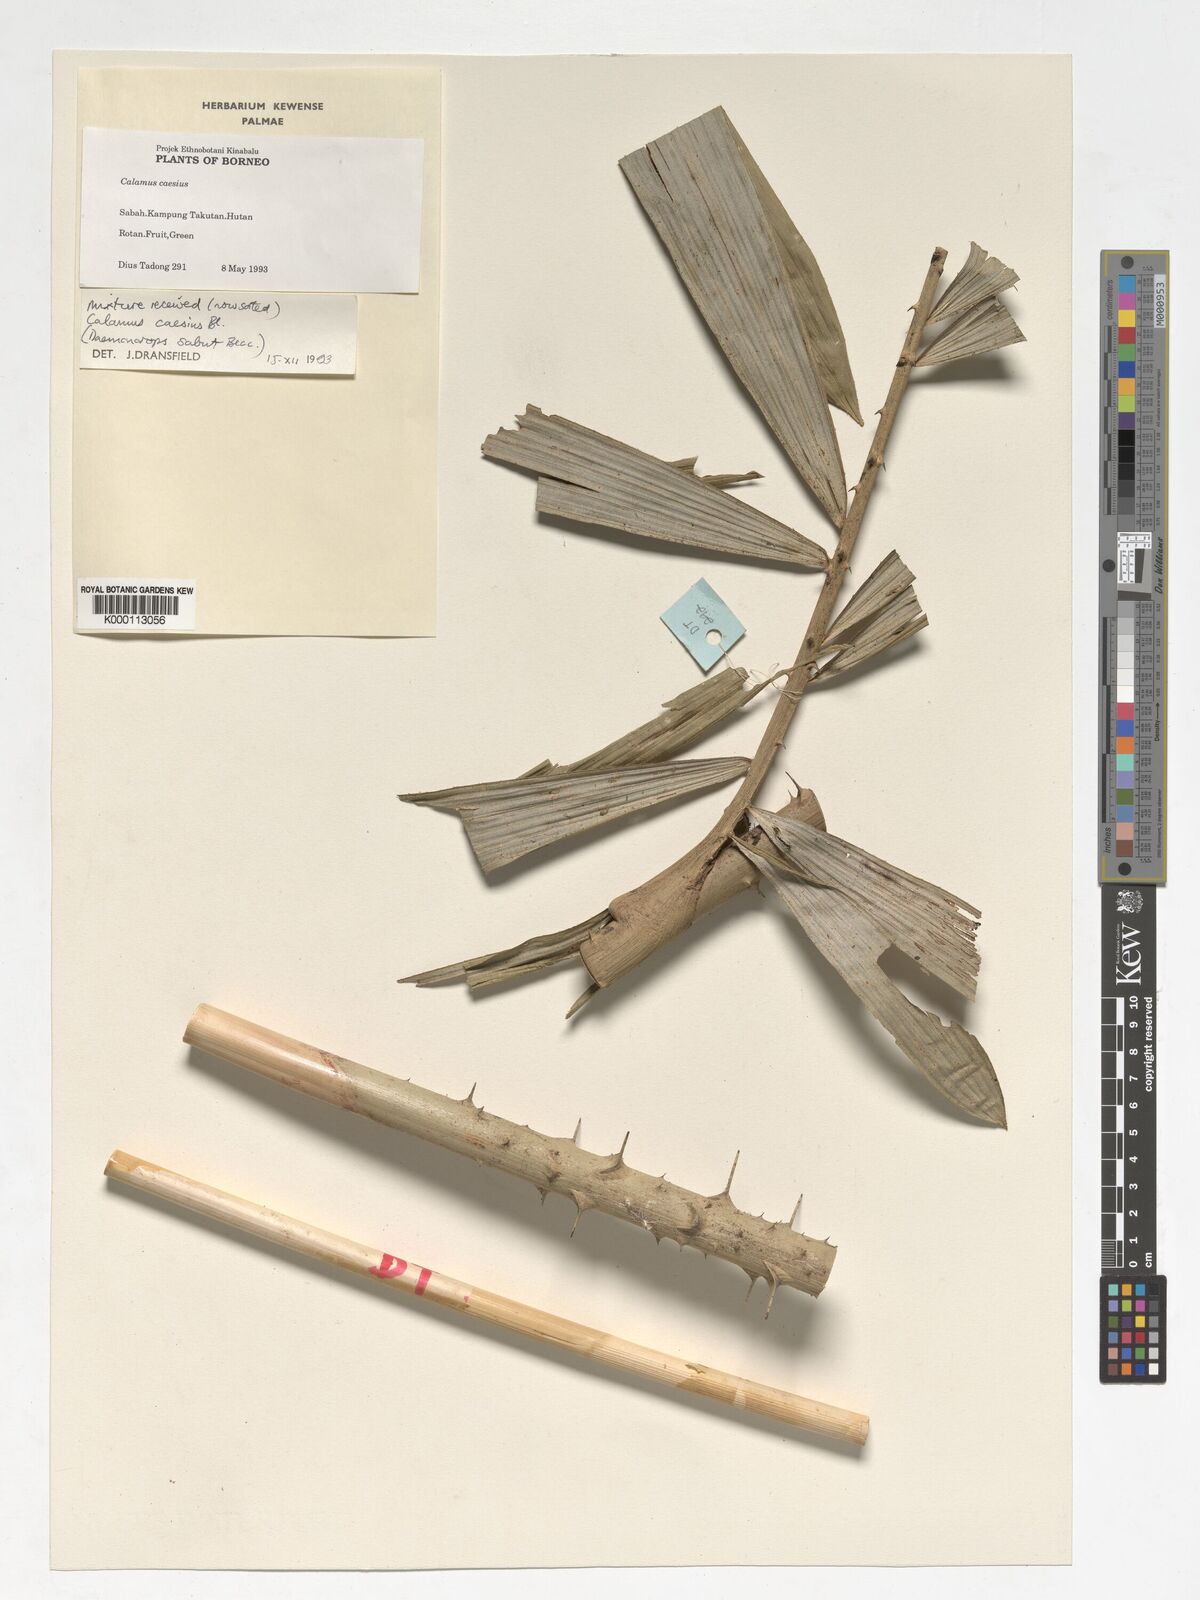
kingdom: Plantae
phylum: Tracheophyta
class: Liliopsida
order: Arecales
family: Arecaceae
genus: Calamus
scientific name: Calamus caesius
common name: Rattan palm
